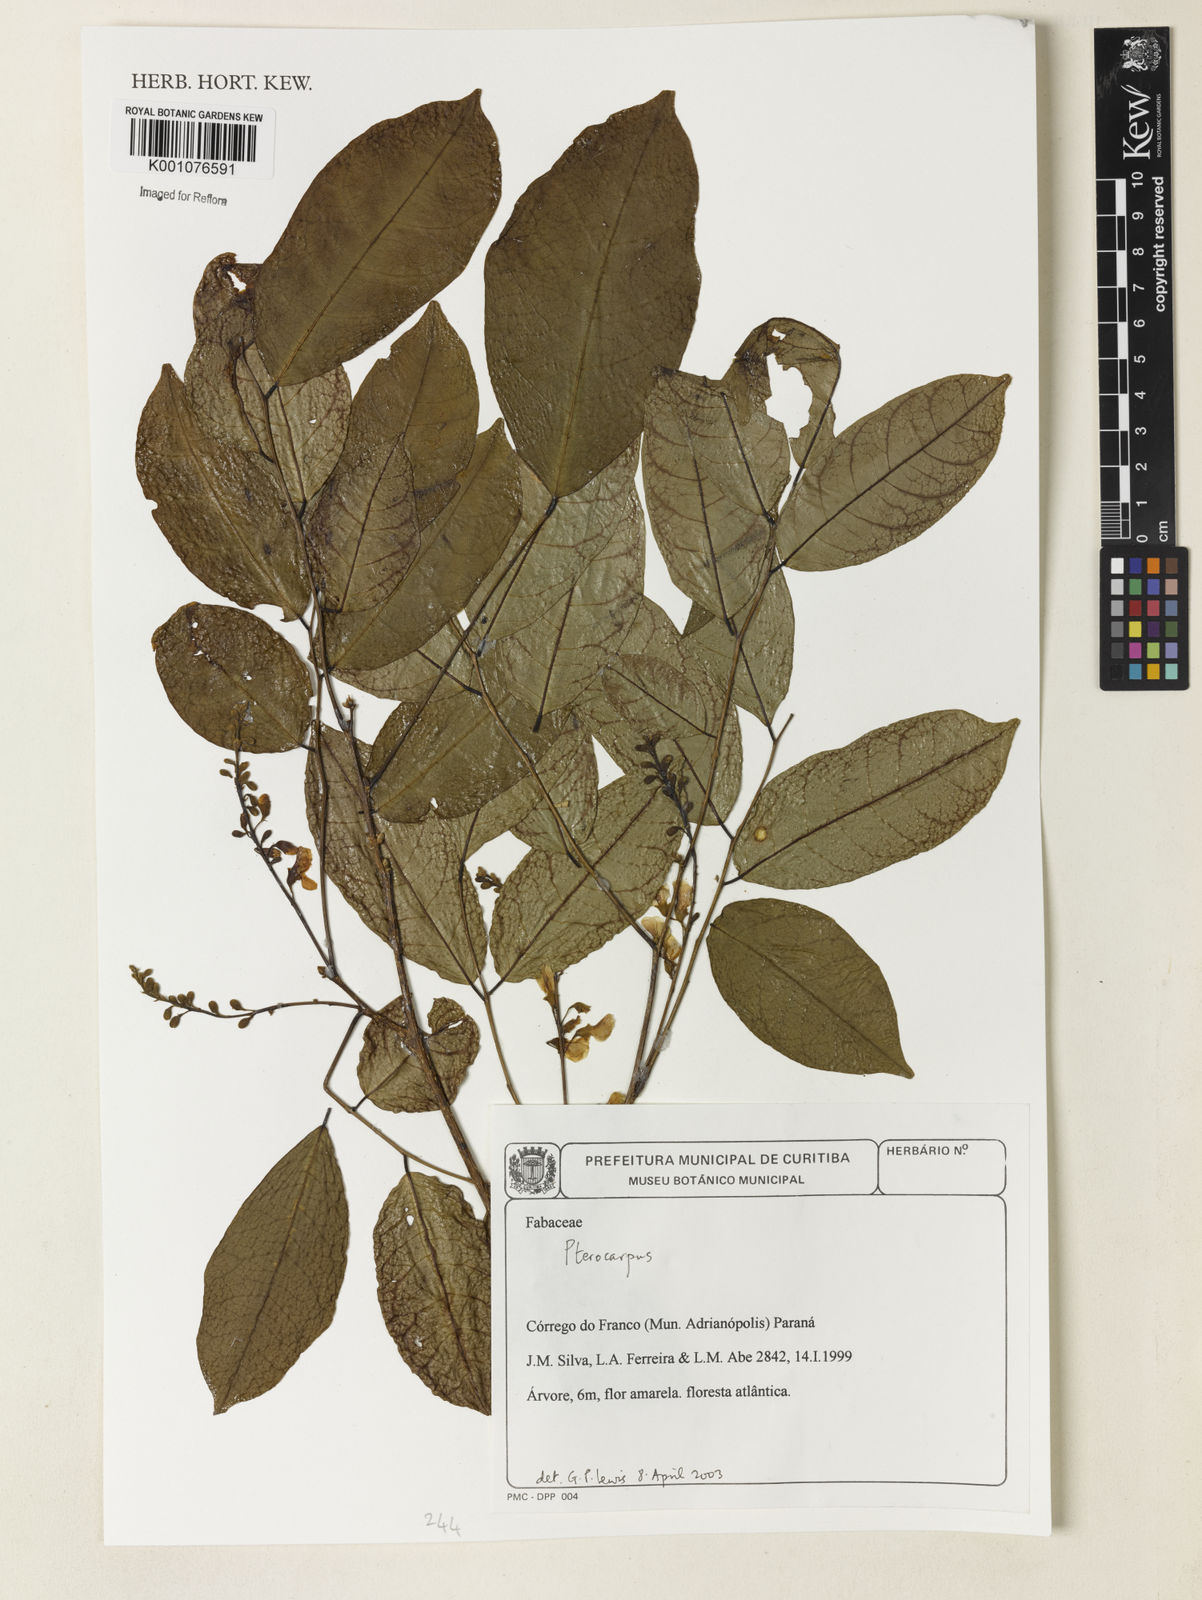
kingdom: Plantae
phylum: Tracheophyta
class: Magnoliopsida
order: Fabales
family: Fabaceae
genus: Pterocarpus
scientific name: Pterocarpus rohrii
